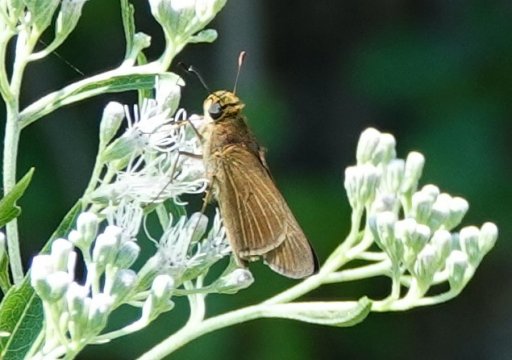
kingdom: Animalia
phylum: Arthropoda
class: Insecta
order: Lepidoptera
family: Hesperiidae
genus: Panoquina
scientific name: Panoquina ocola
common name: Ocola Skipper
